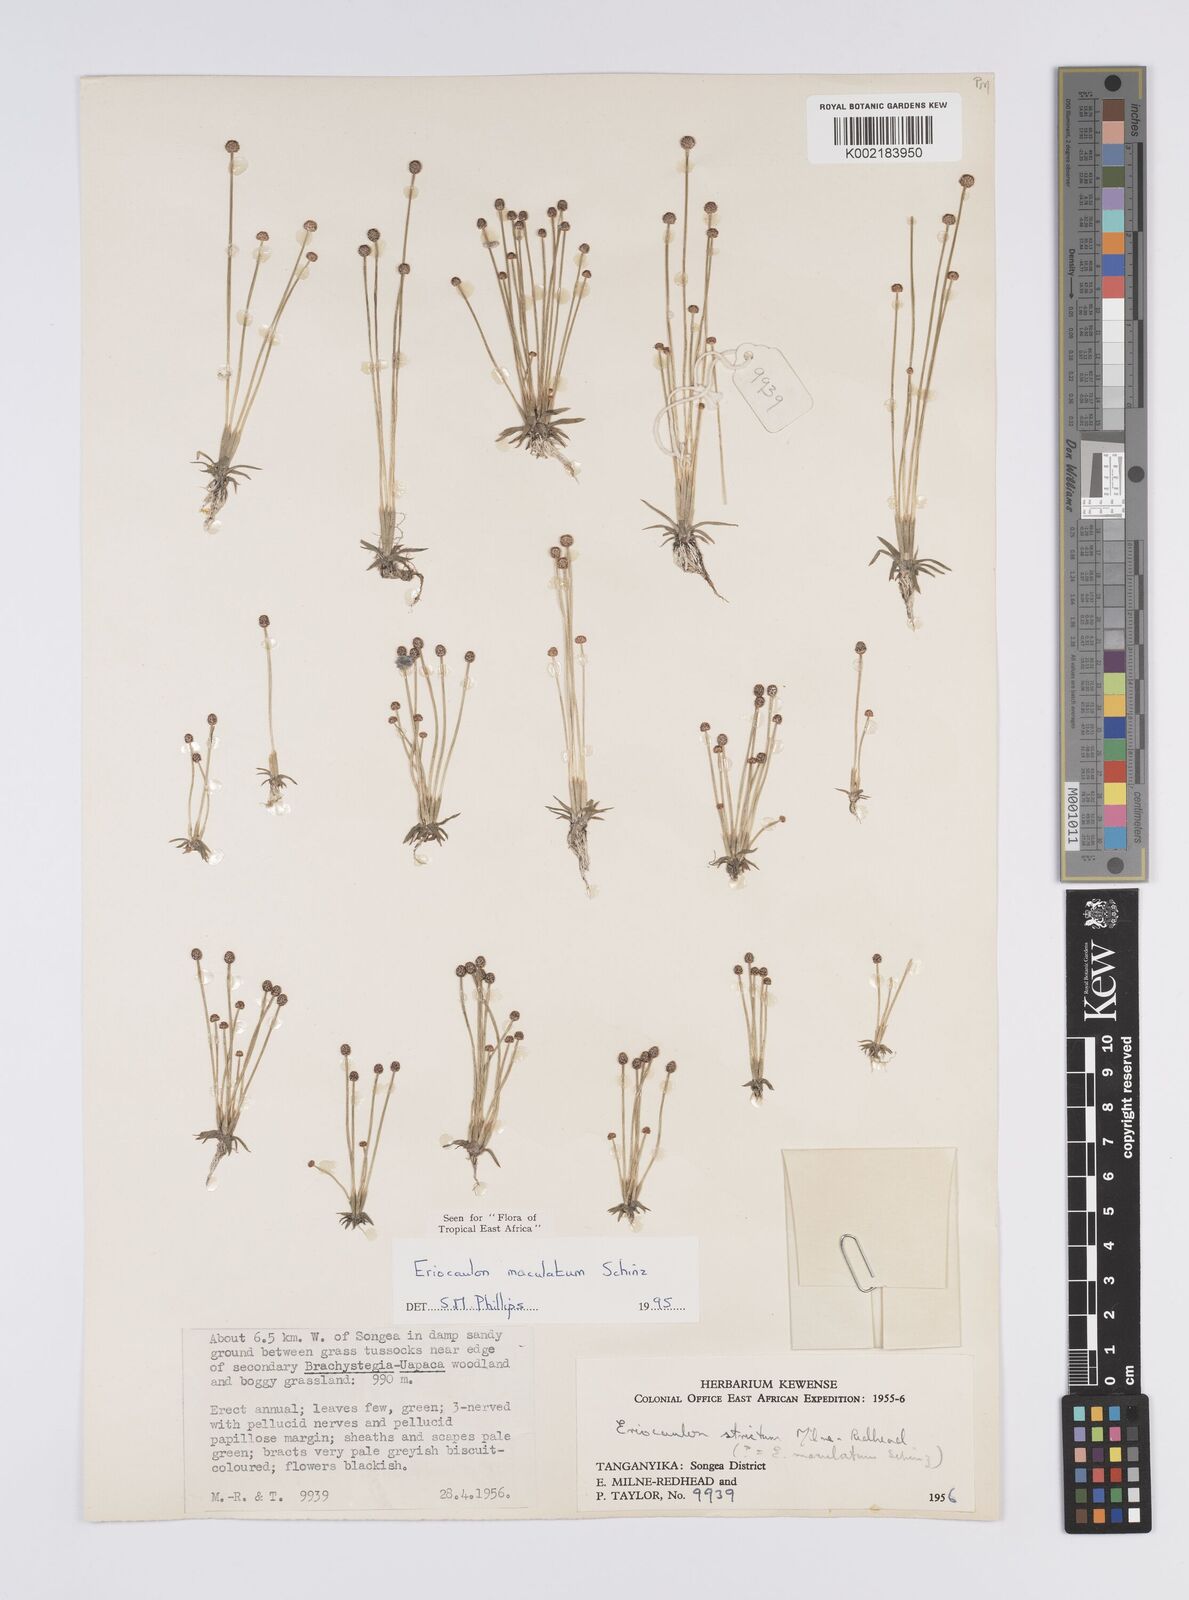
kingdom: Plantae
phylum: Tracheophyta
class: Liliopsida
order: Poales
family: Eriocaulaceae
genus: Eriocaulon
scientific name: Eriocaulon maculatum
